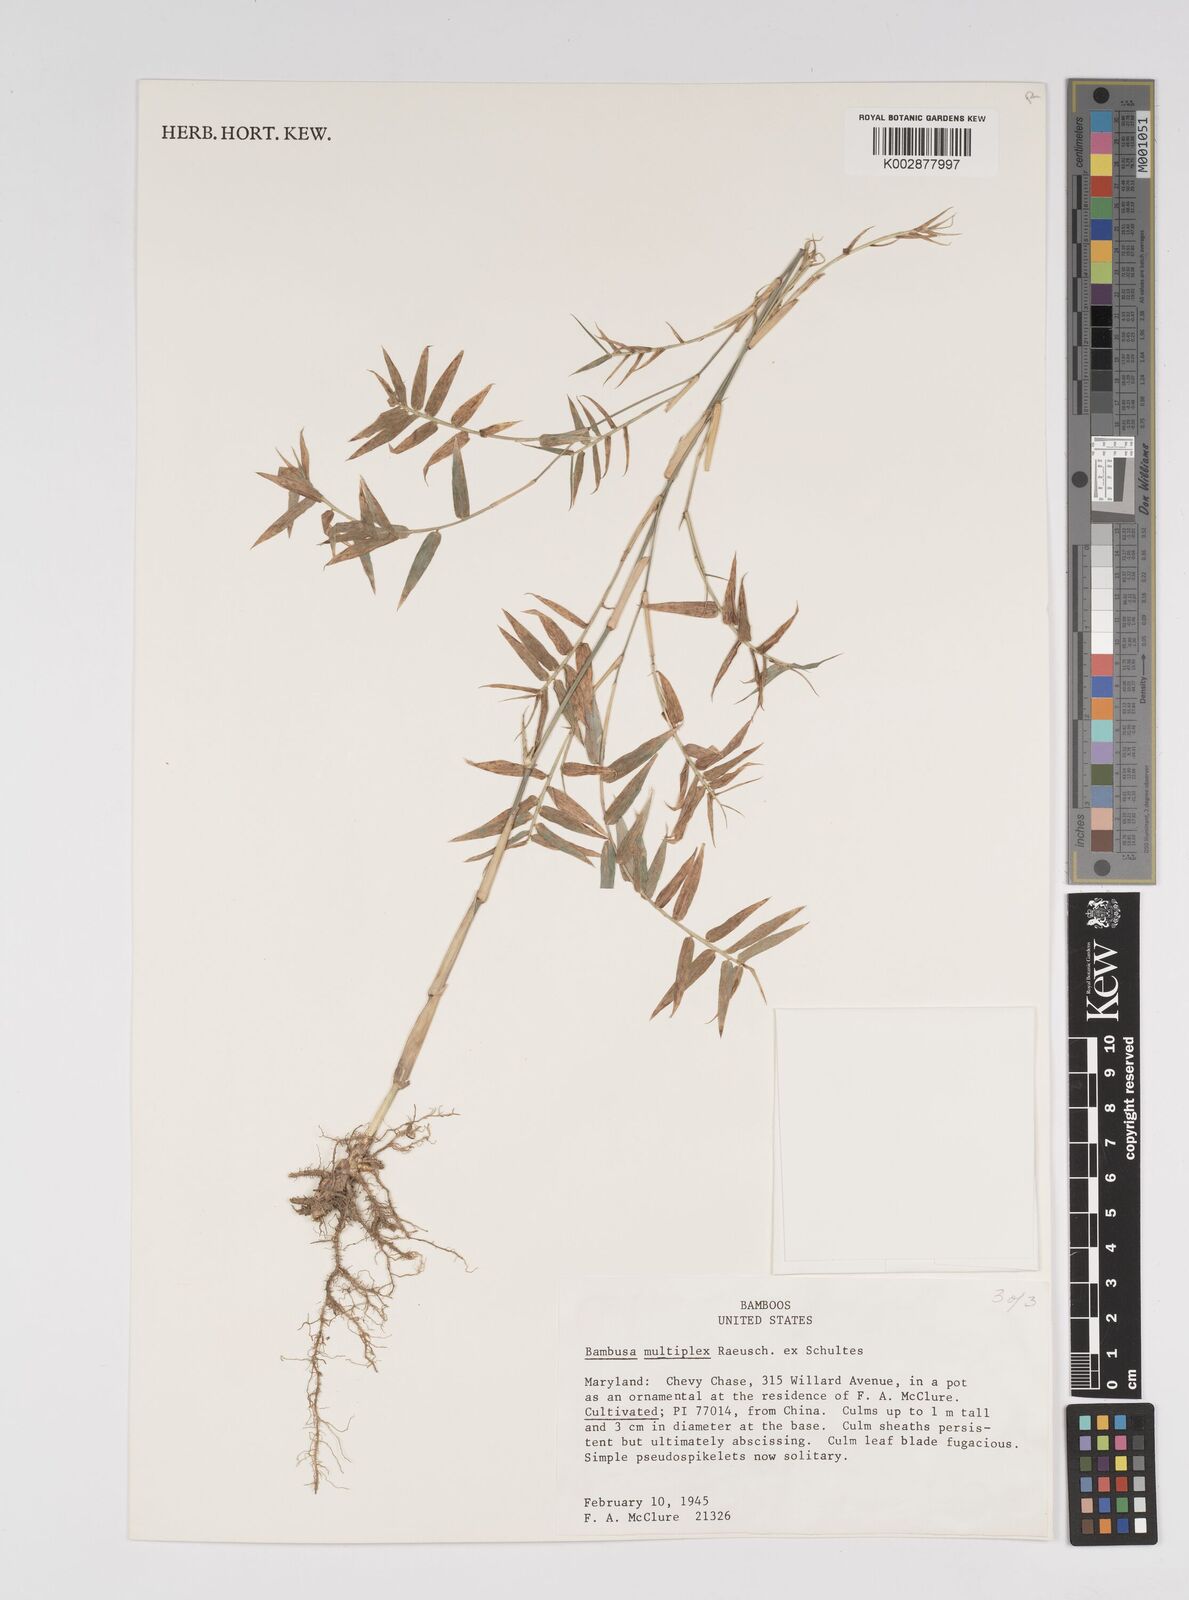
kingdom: Plantae
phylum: Tracheophyta
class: Liliopsida
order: Poales
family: Poaceae
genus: Bambusa
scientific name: Bambusa multiplex
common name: Hedge bamboo
